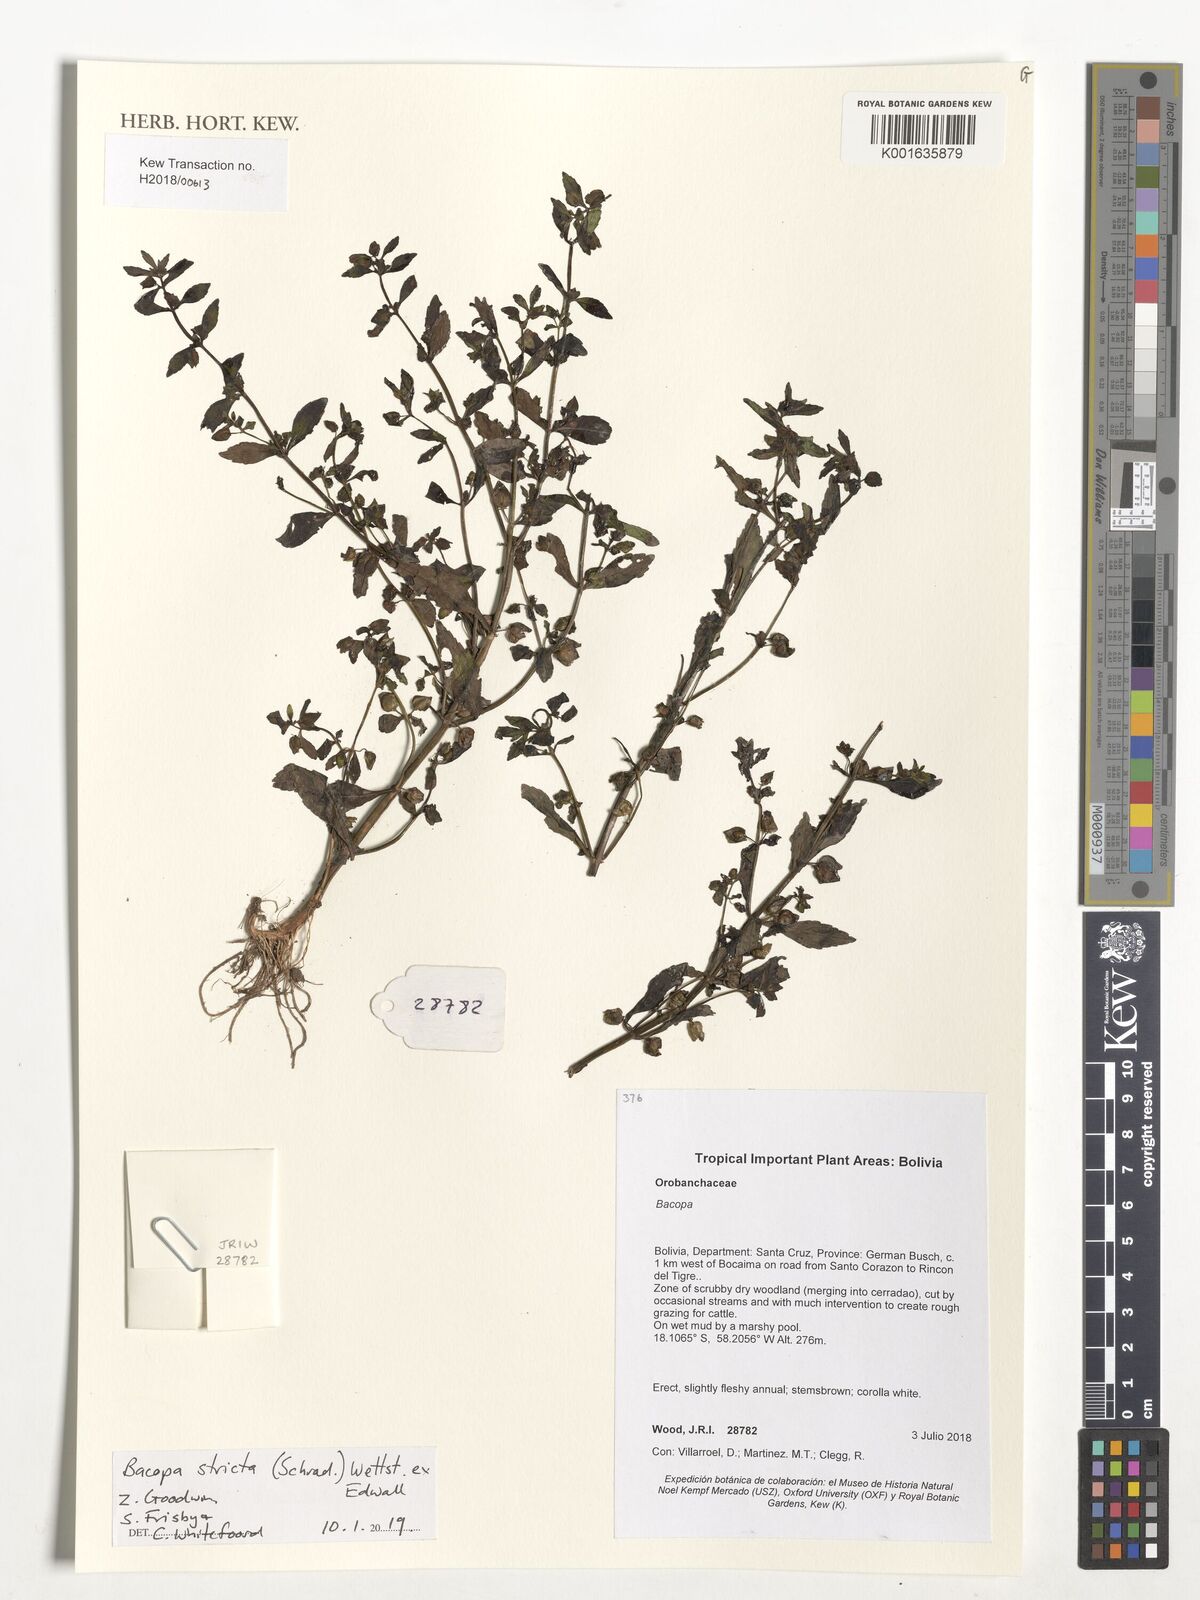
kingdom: Plantae
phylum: Tracheophyta
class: Magnoliopsida
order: Lamiales
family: Plantaginaceae
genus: Bacopa
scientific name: Bacopa stricta
